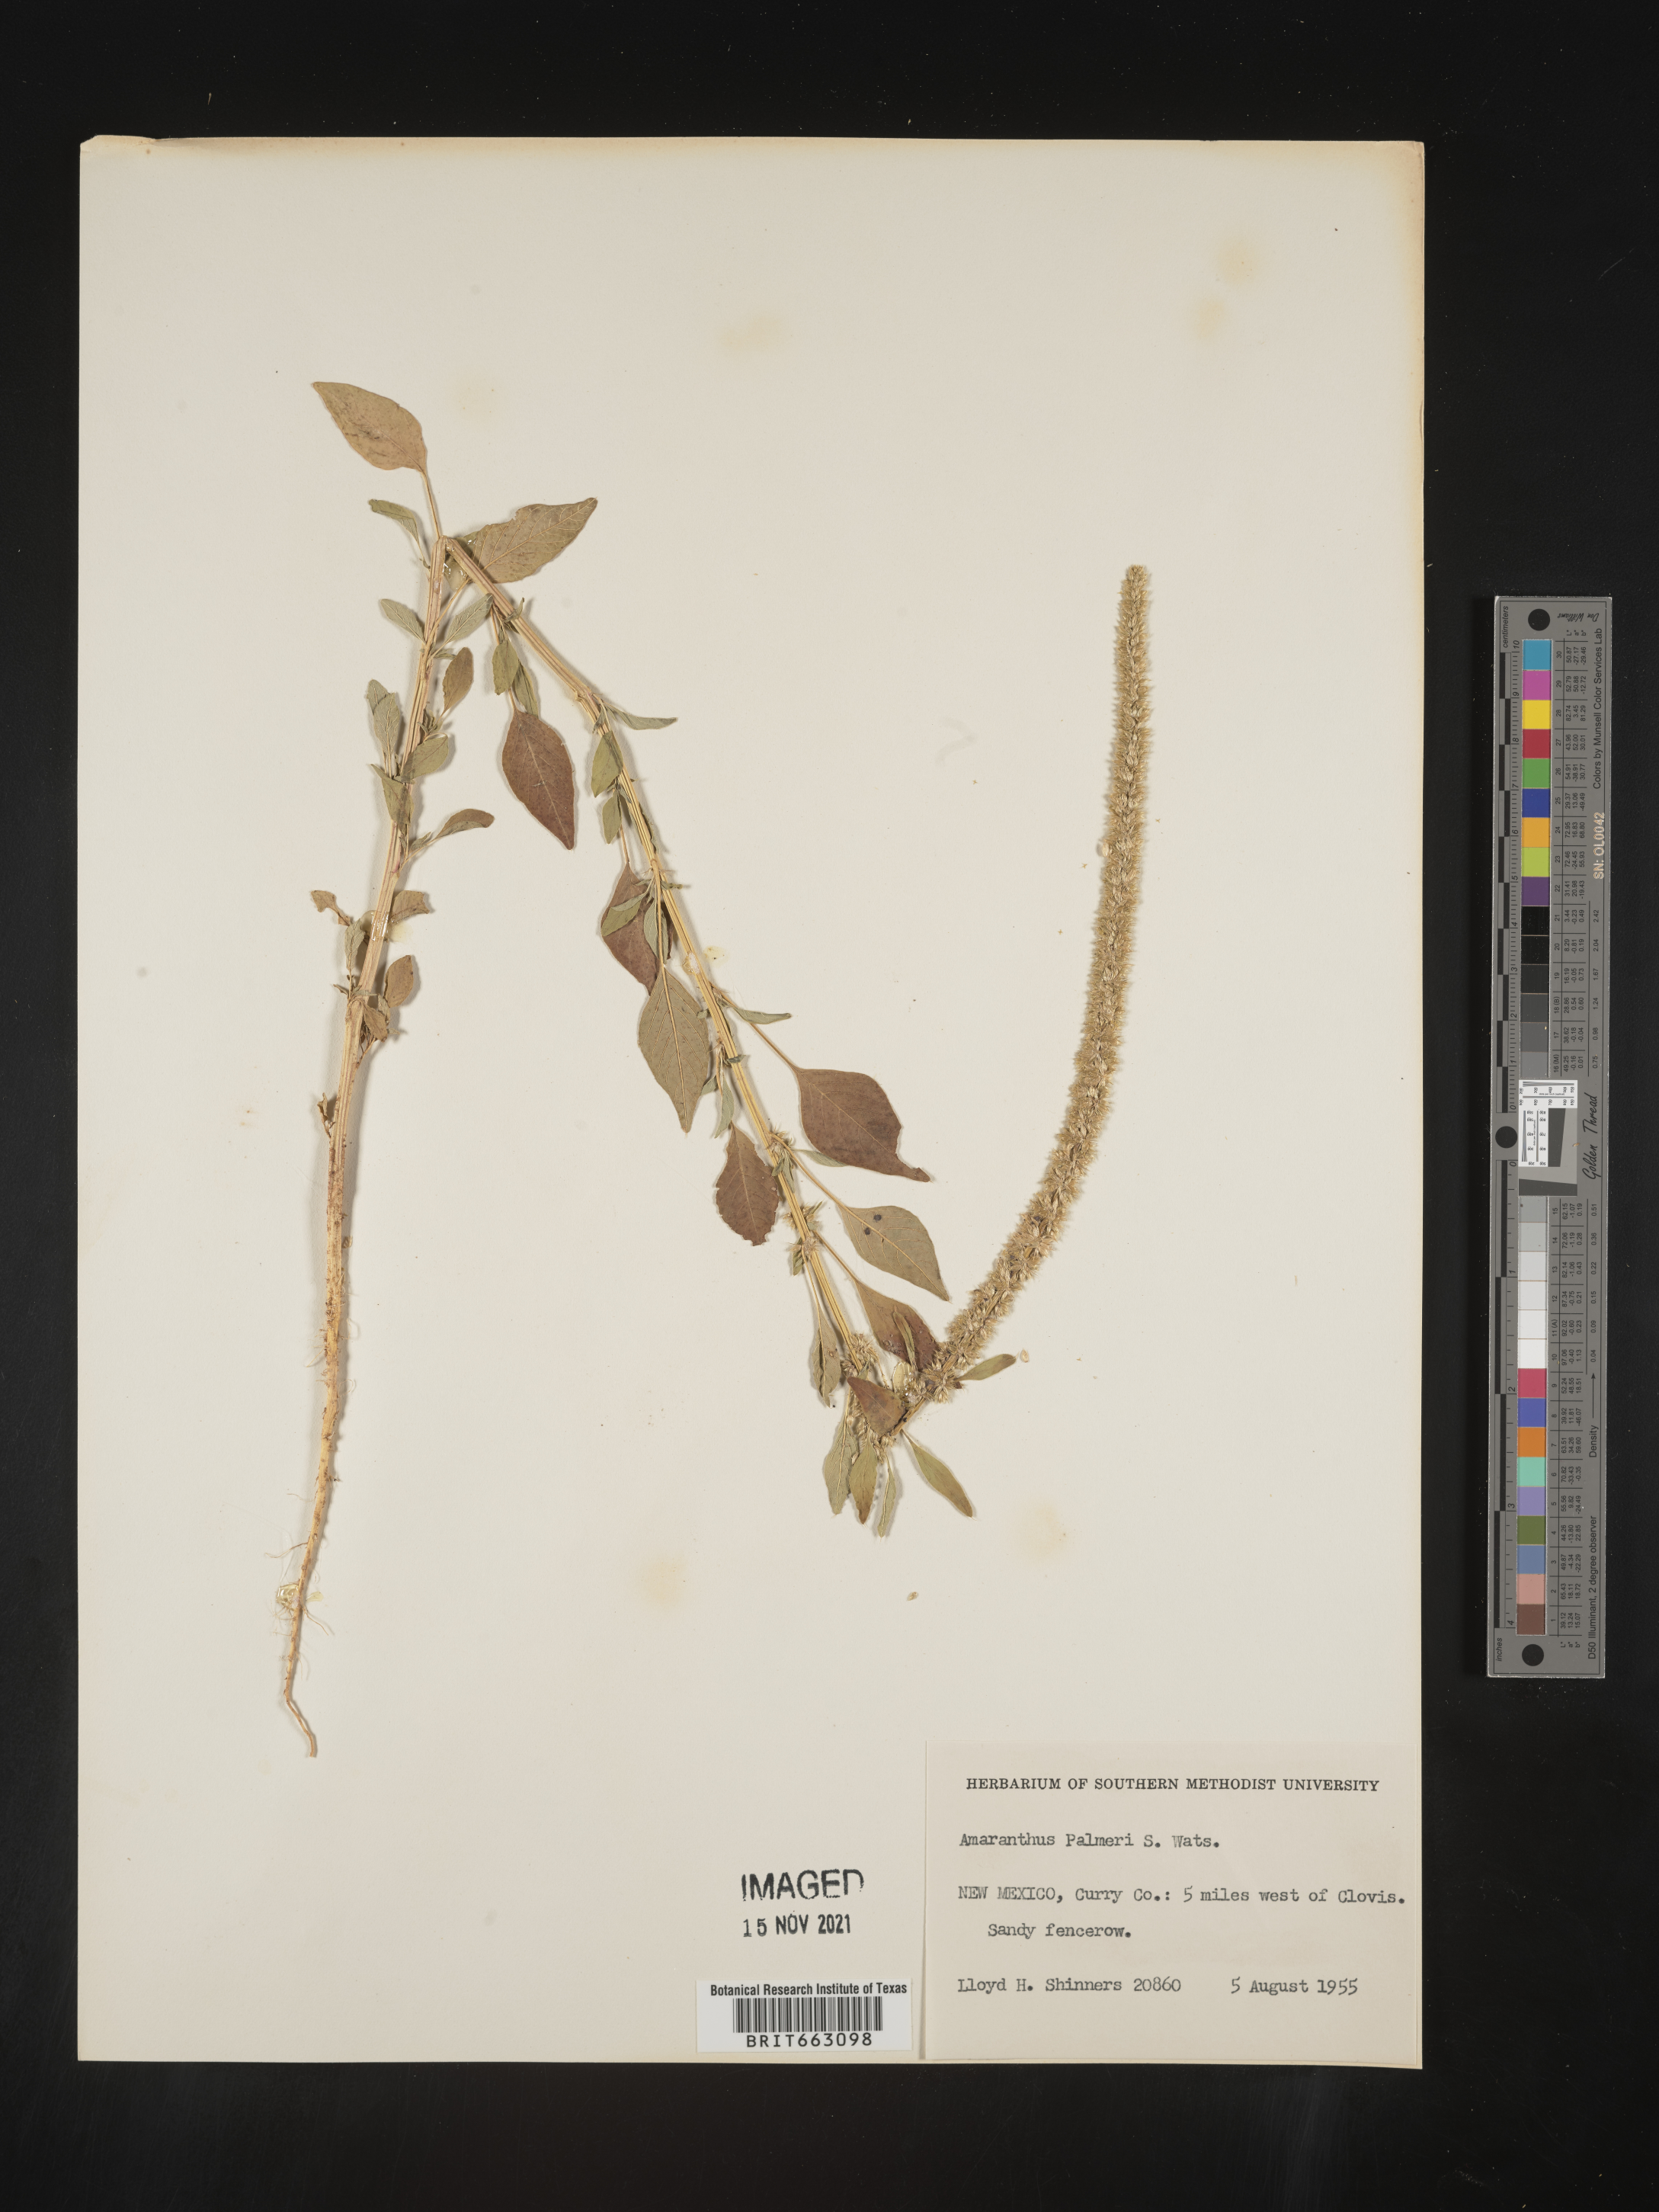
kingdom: Plantae
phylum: Tracheophyta
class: Magnoliopsida
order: Caryophyllales
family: Amaranthaceae
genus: Amaranthus
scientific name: Amaranthus palmeri
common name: Dioecious amaranth
